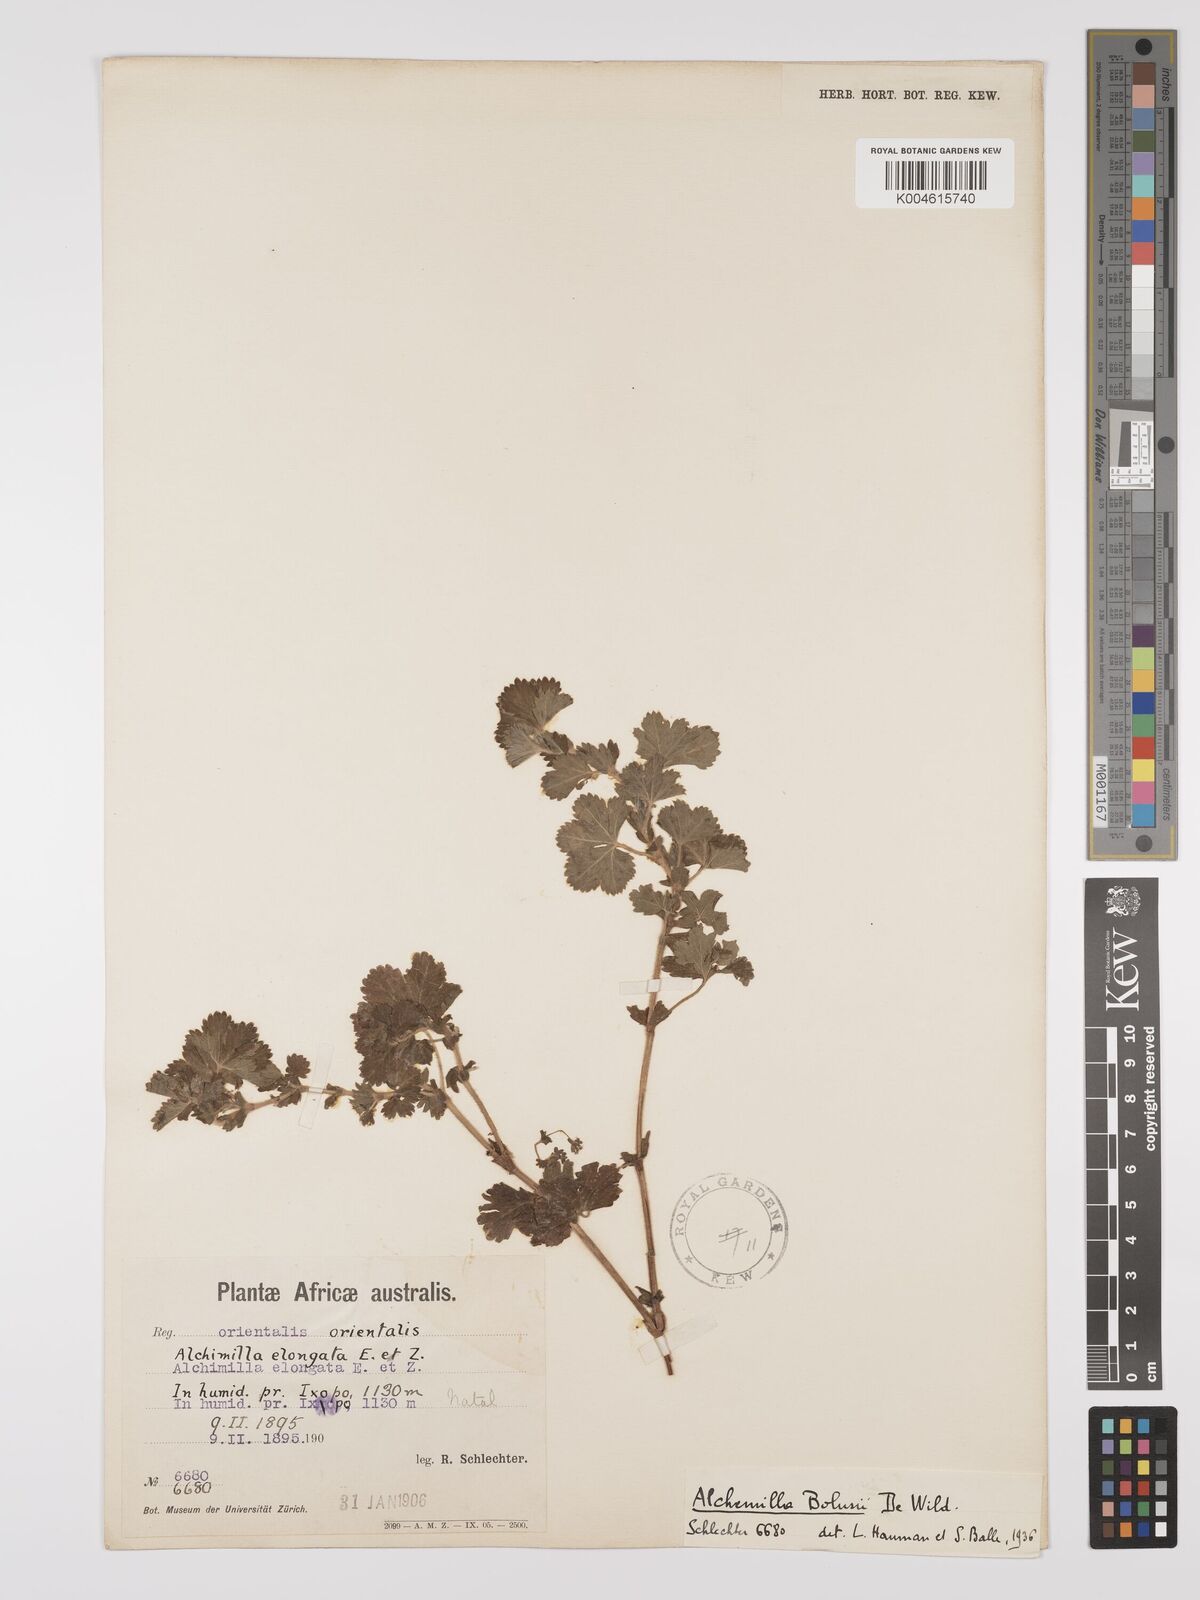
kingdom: Plantae
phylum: Tracheophyta
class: Magnoliopsida
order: Rosales
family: Rosaceae
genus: Alchemilla
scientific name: Alchemilla bolusii
